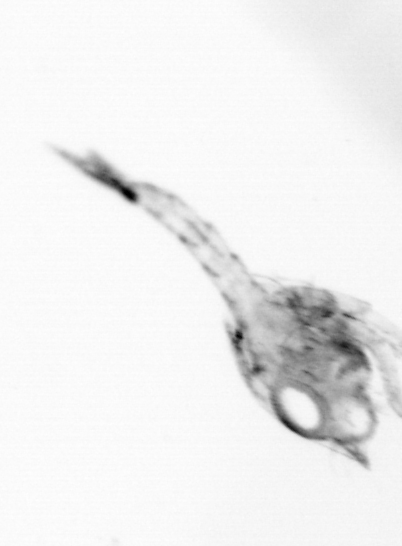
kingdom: Animalia
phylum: Arthropoda
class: Copepoda
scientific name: Copepoda
